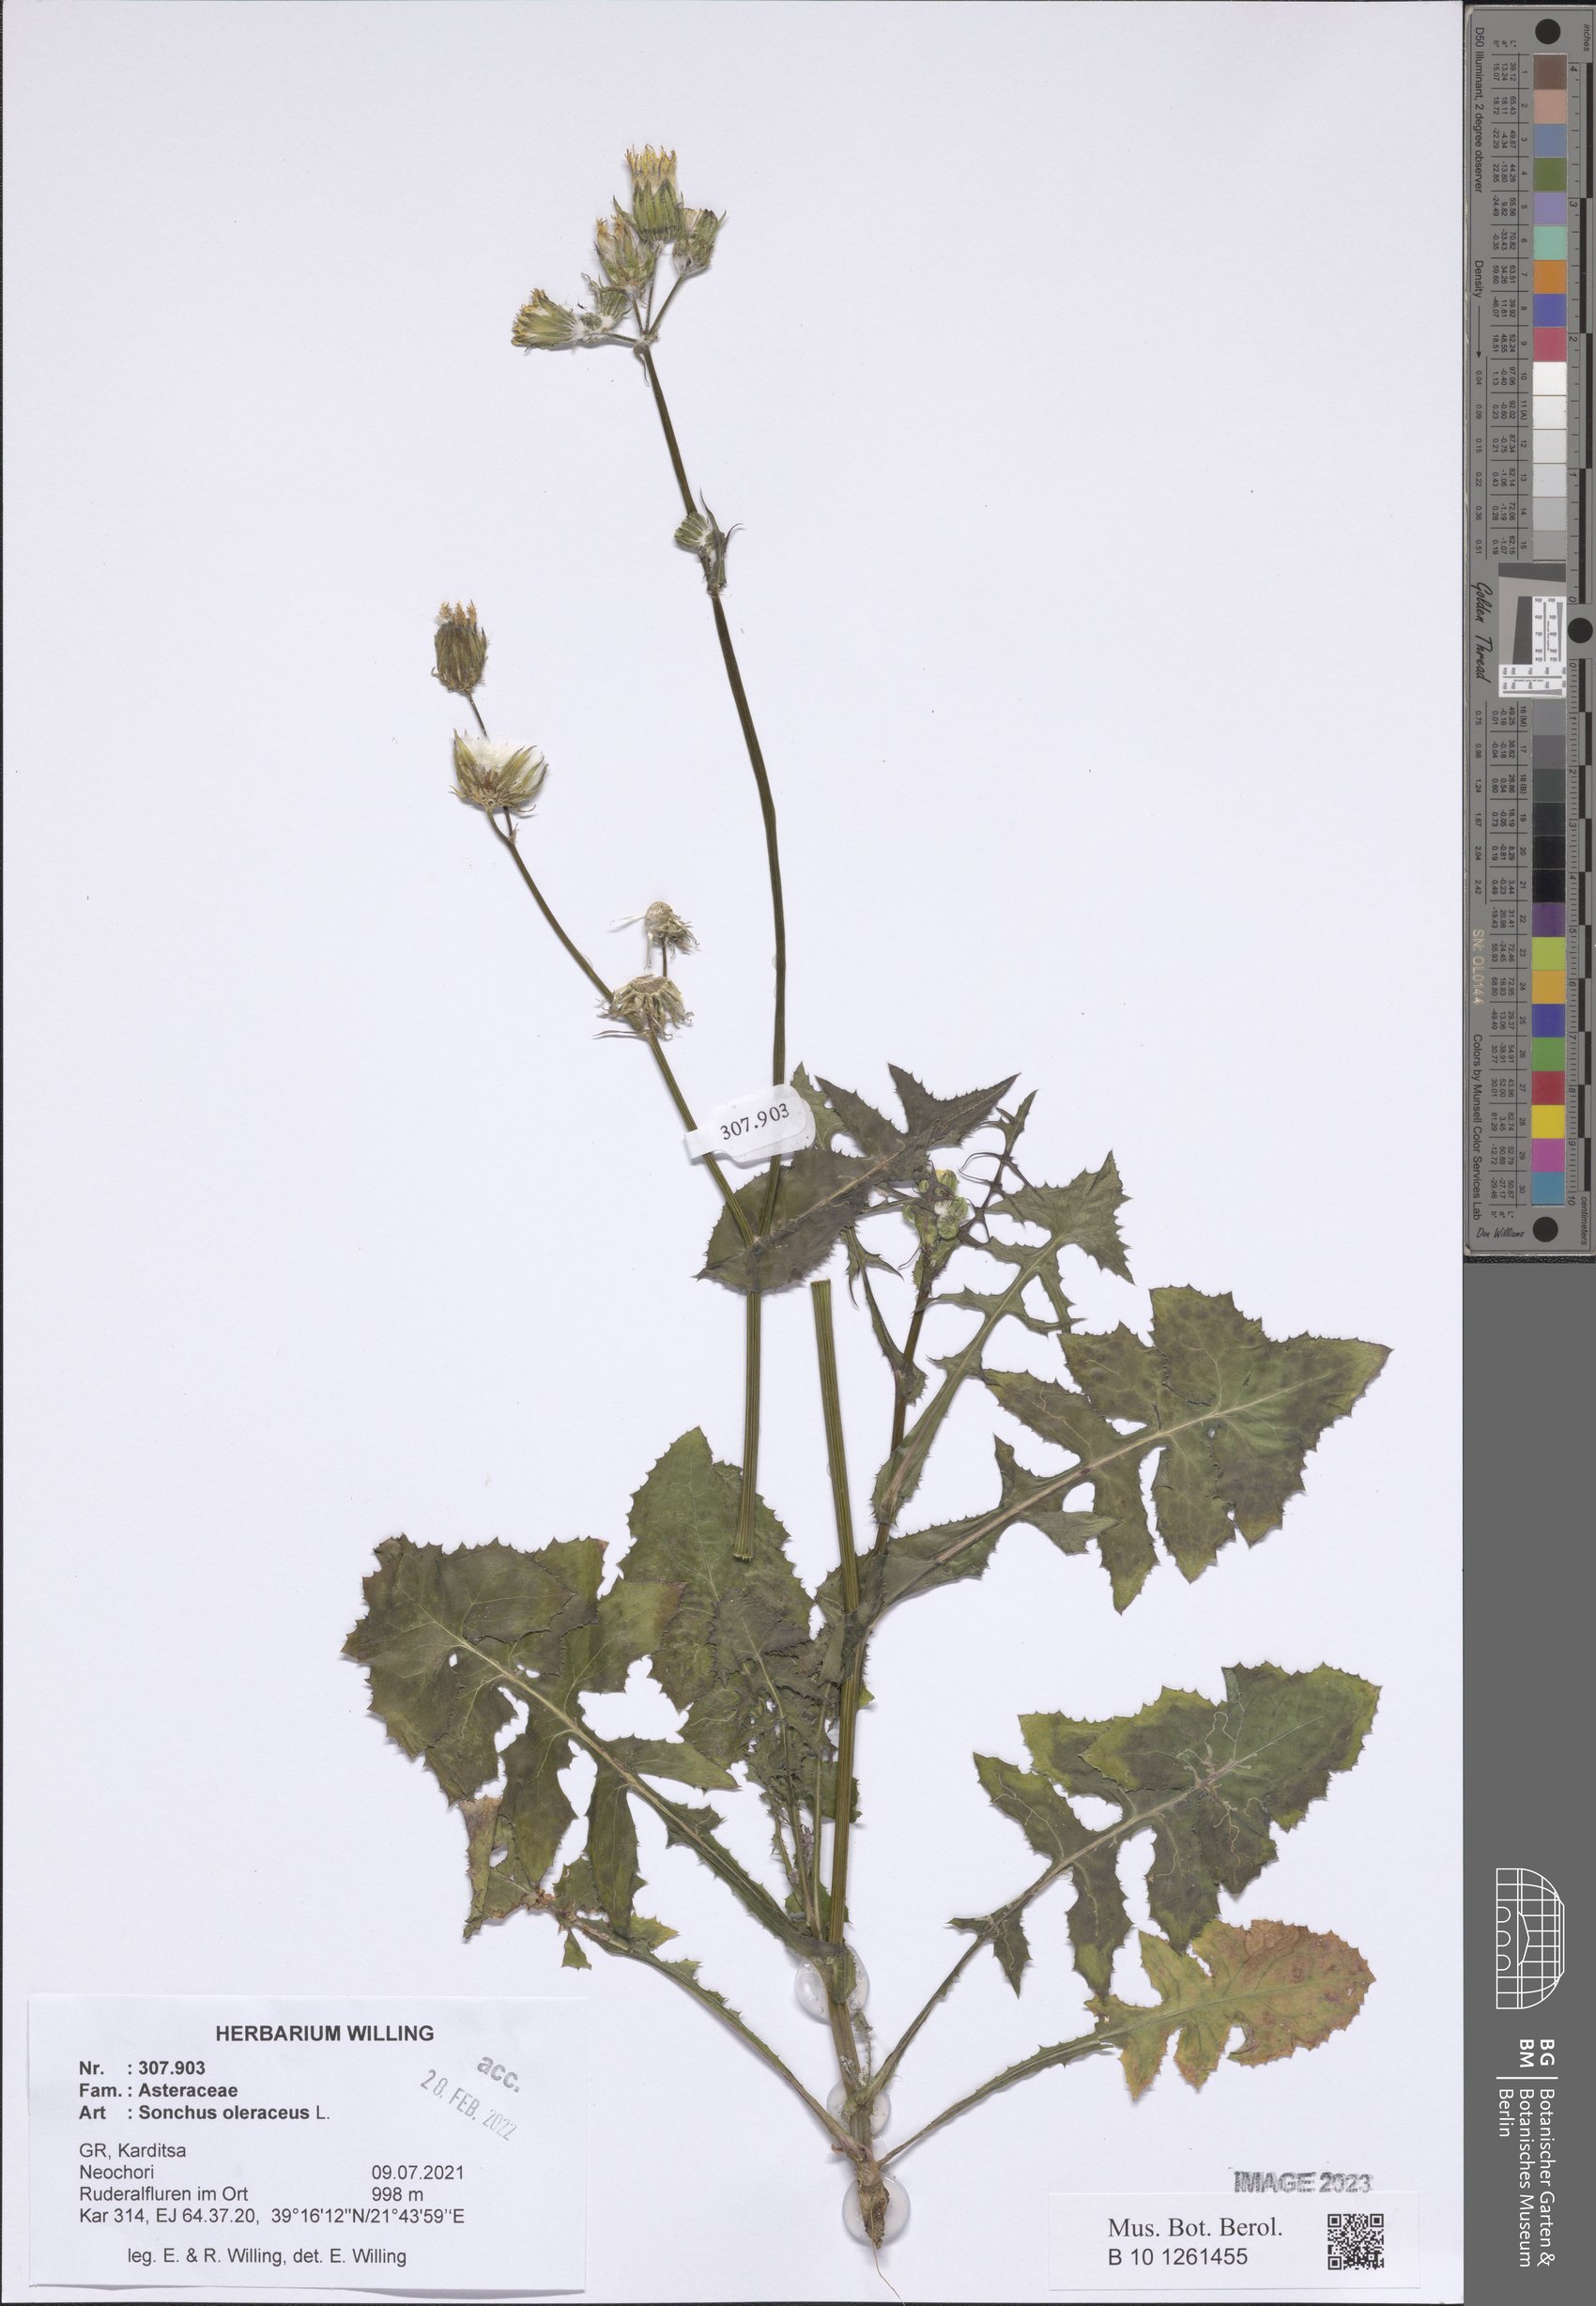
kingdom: Plantae
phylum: Tracheophyta
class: Magnoliopsida
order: Asterales
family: Asteraceae
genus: Sonchus
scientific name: Sonchus oleraceus
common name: Common sowthistle
